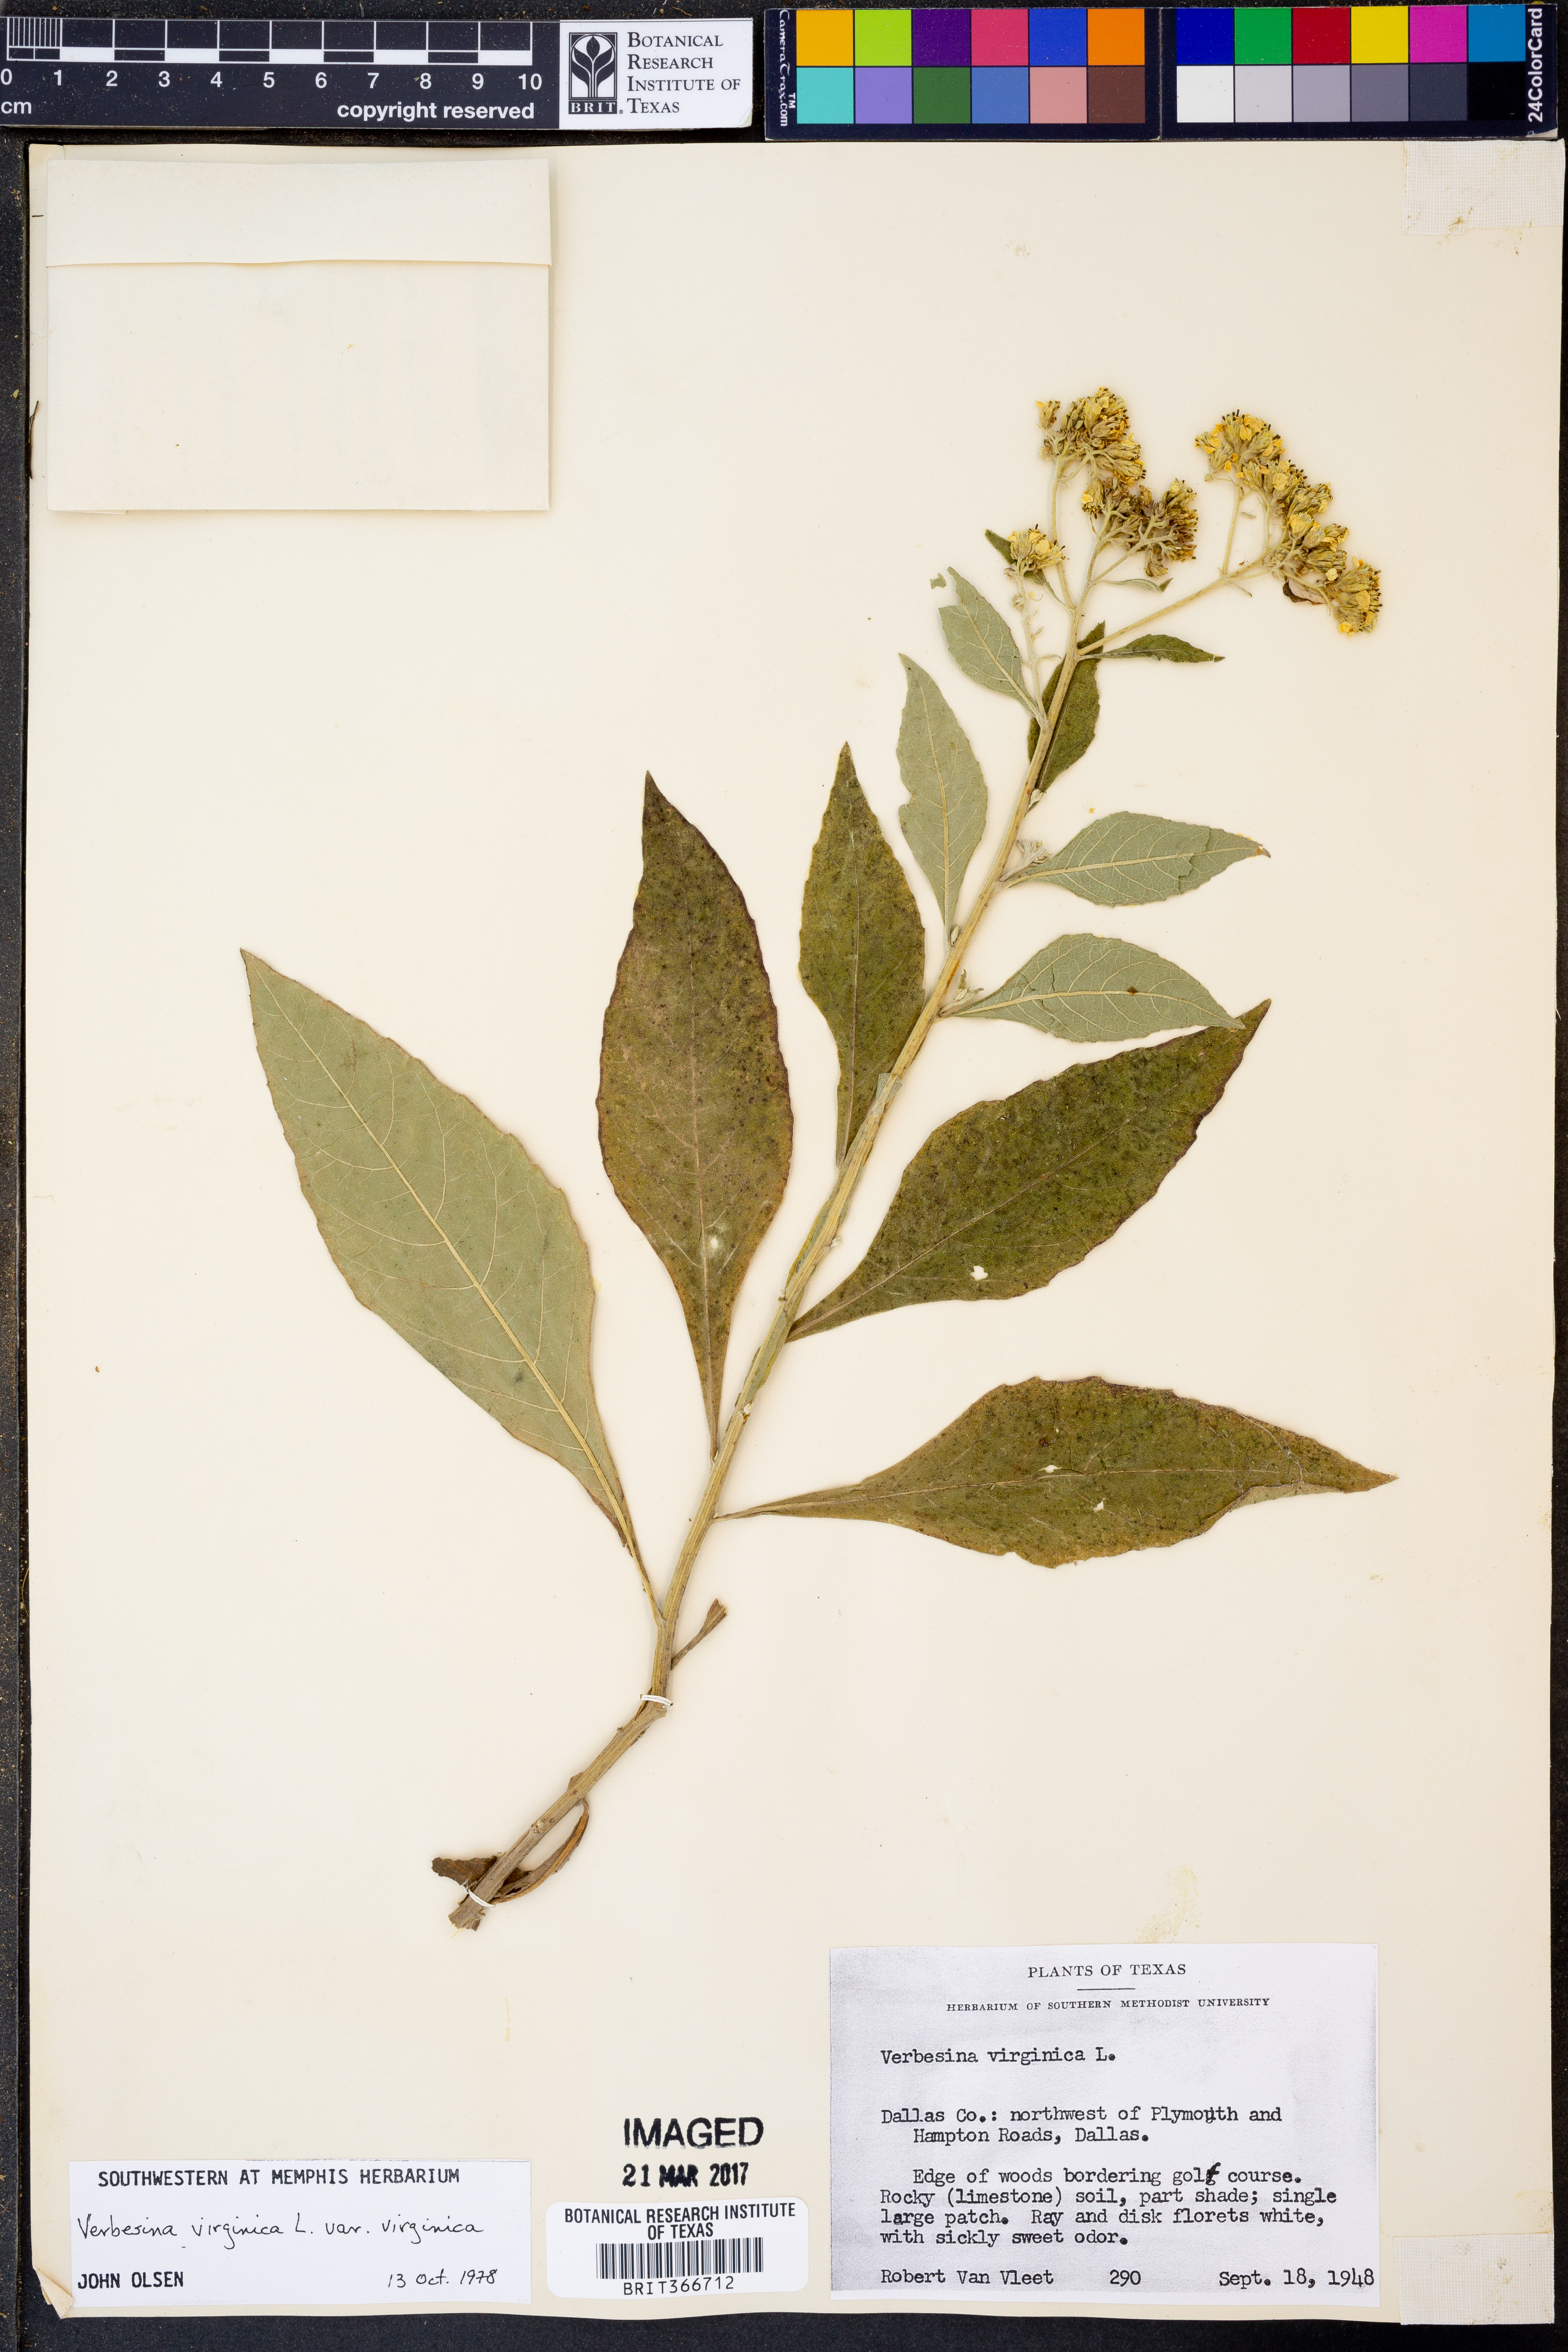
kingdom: Plantae
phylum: Tracheophyta
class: Magnoliopsida
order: Asterales
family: Asteraceae
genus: Verbesina
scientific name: Verbesina virginica
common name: Frostweed
